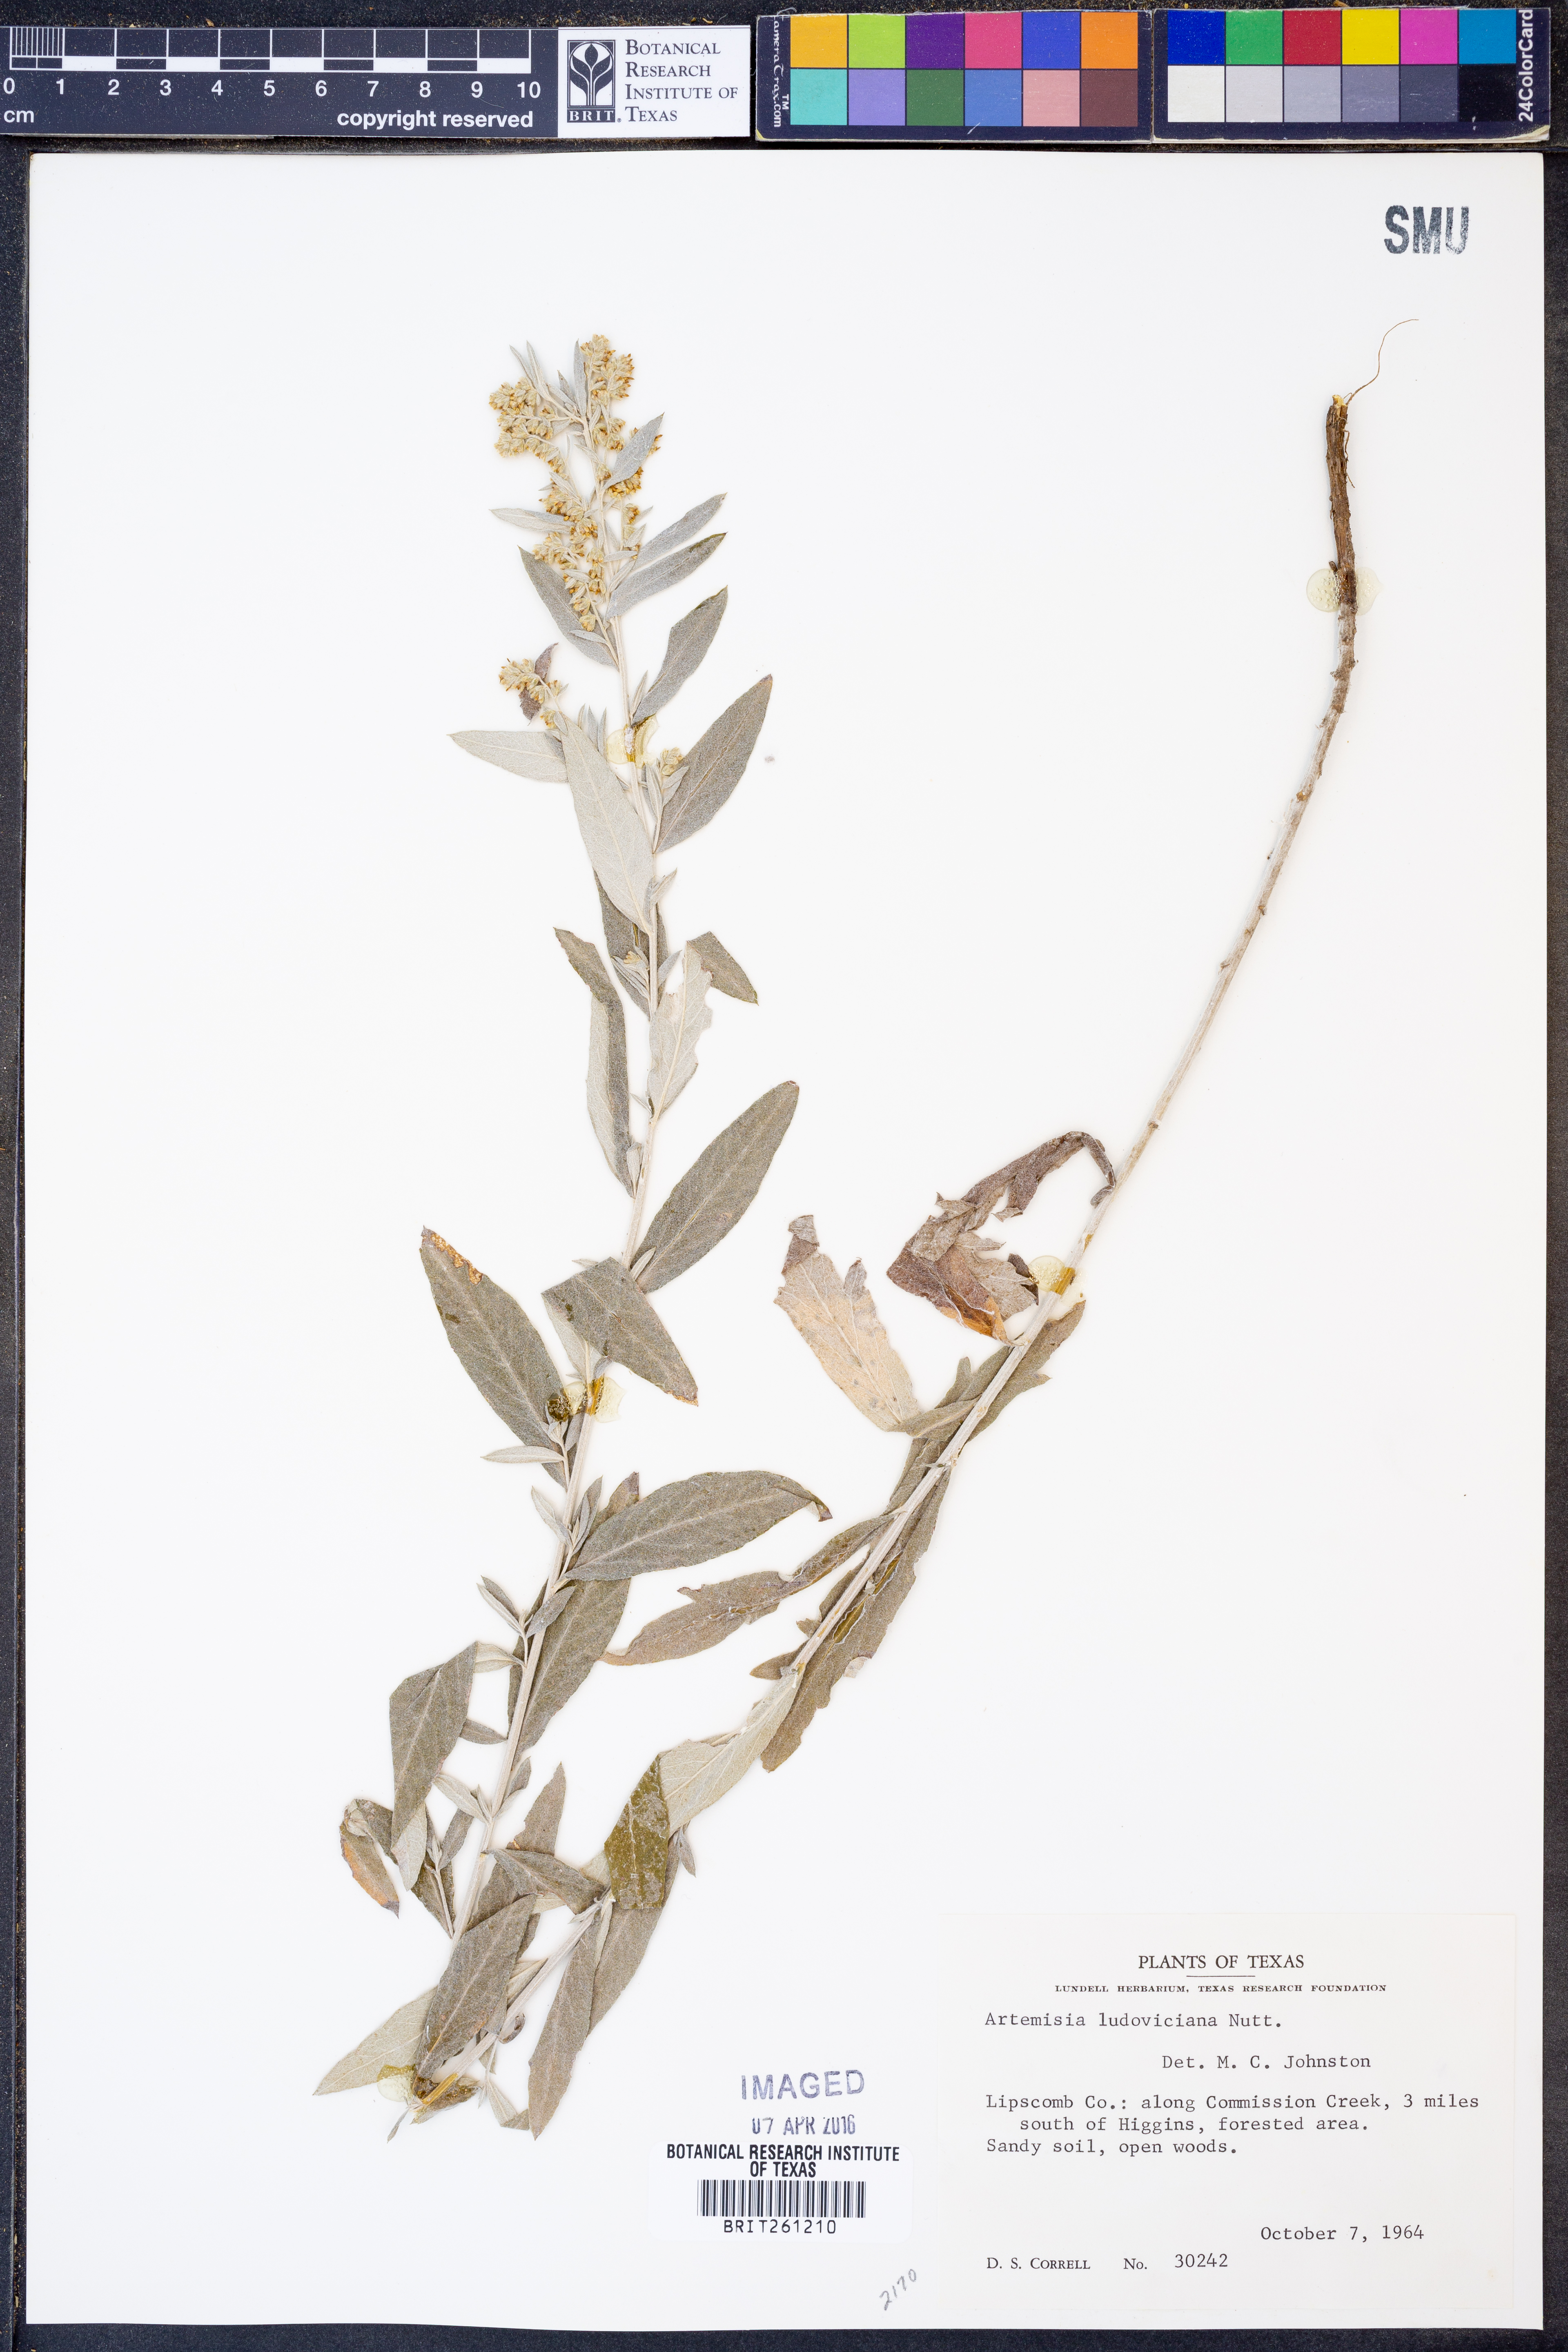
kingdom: Plantae
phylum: Tracheophyta
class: Magnoliopsida
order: Asterales
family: Asteraceae
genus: Artemisia
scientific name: Artemisia ludoviciana
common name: Western mugwort
